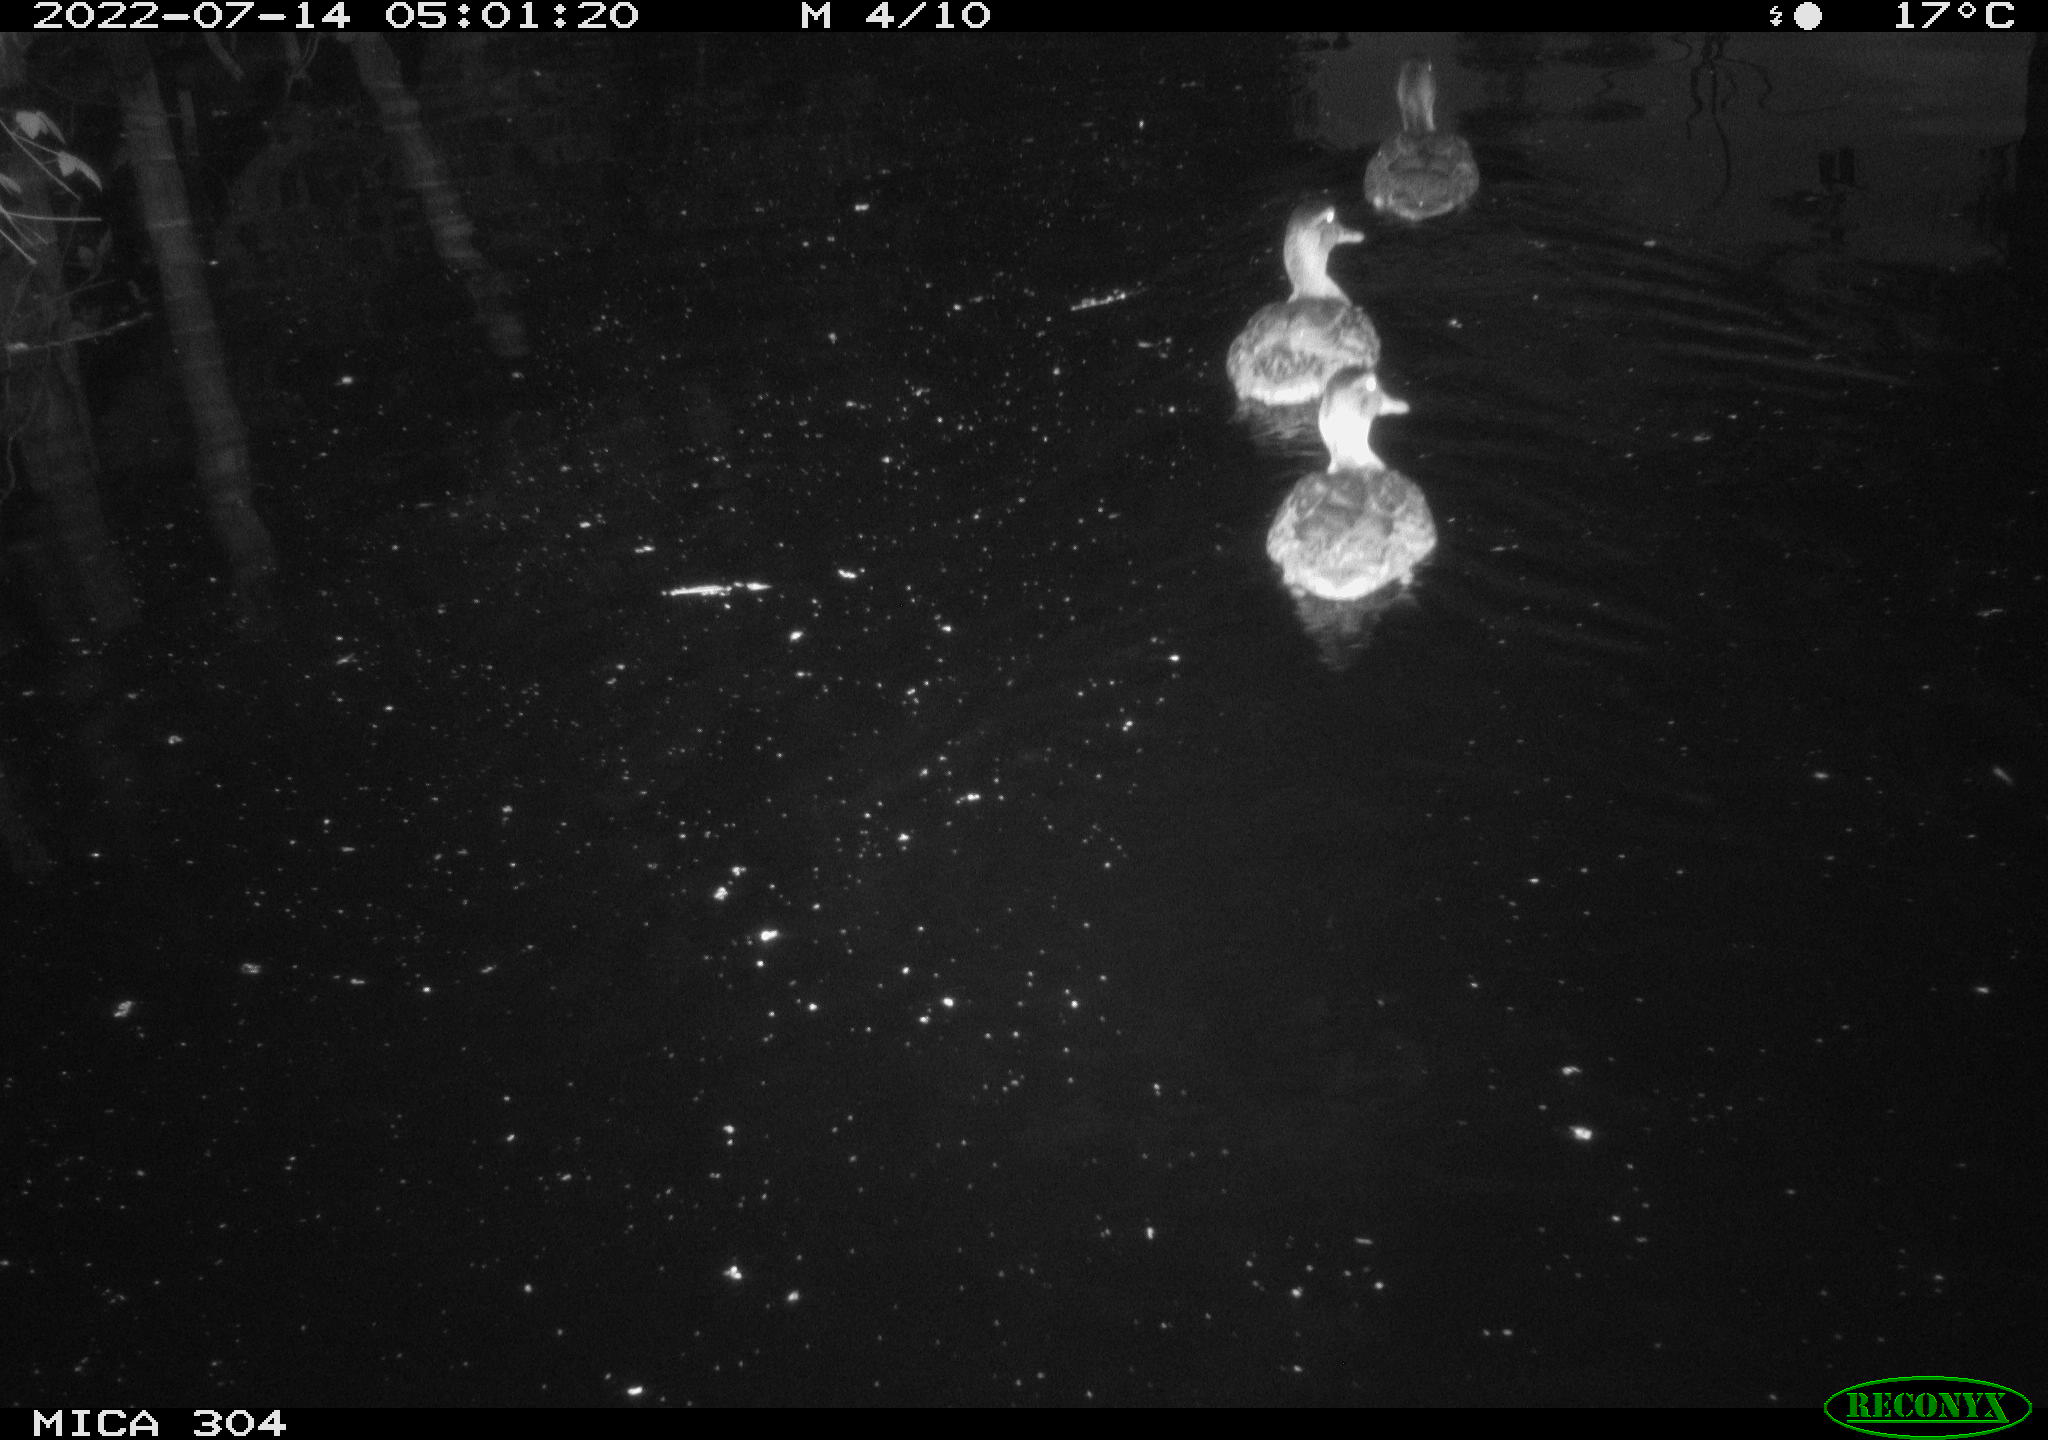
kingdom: Animalia
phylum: Chordata
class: Aves
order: Anseriformes
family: Anatidae
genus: Mareca
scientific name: Mareca strepera
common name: Gadwall
